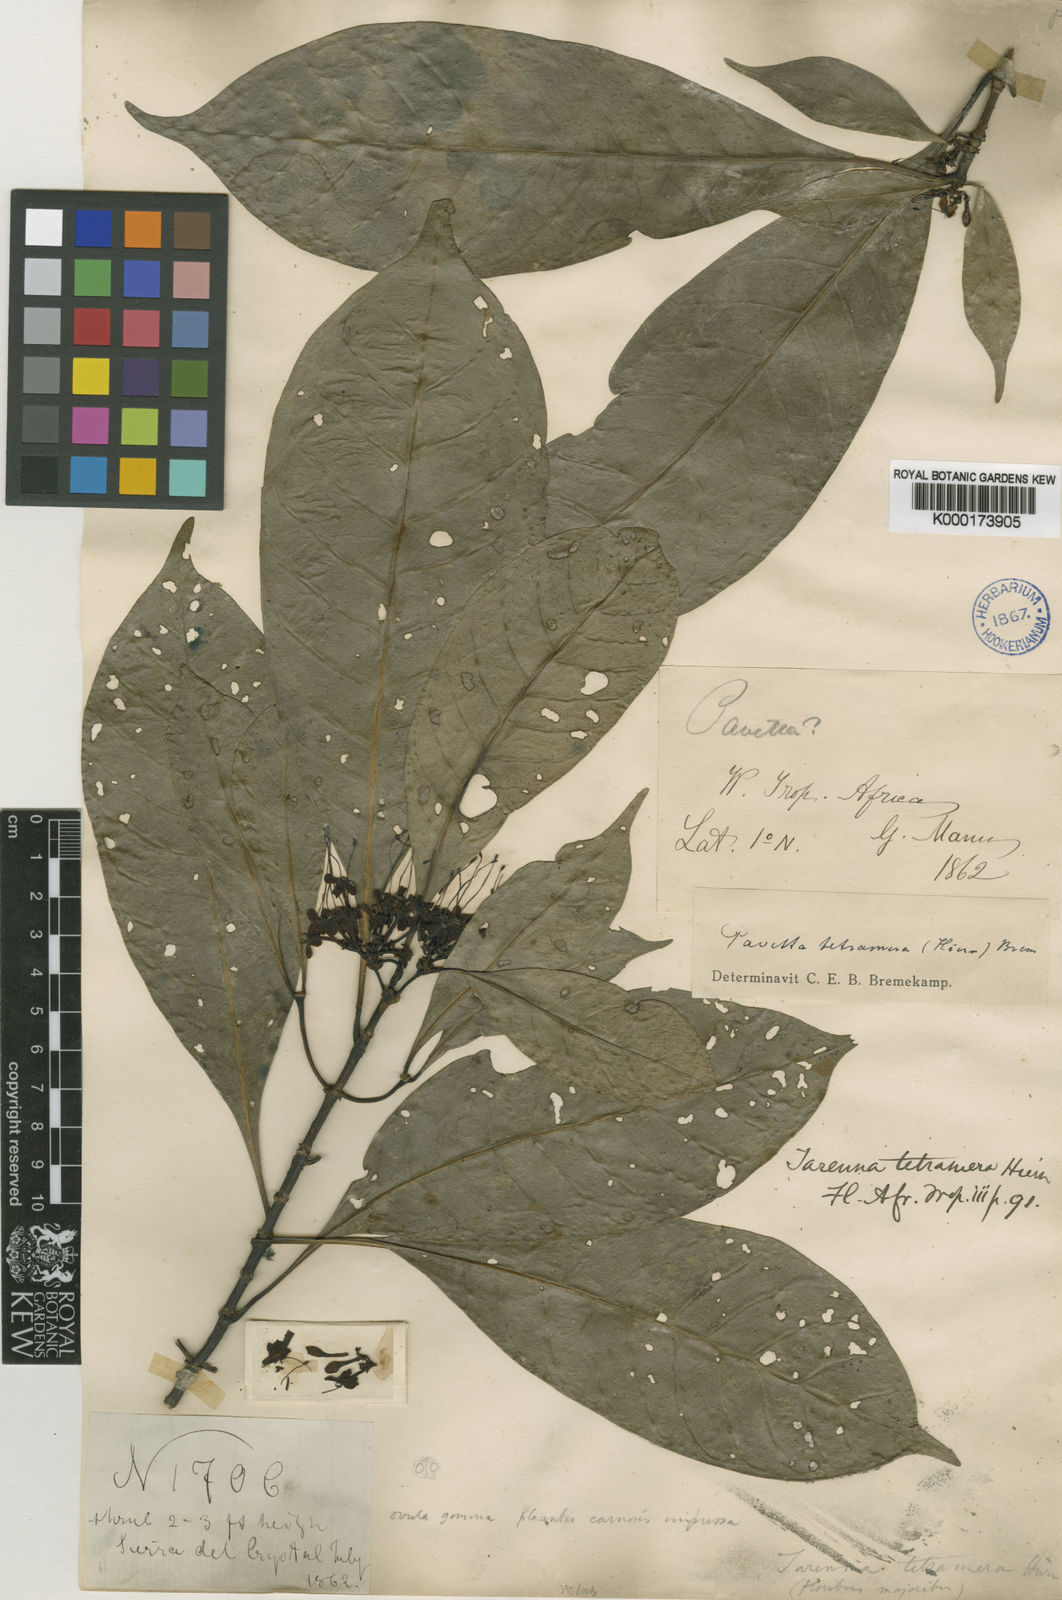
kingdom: Plantae
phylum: Tracheophyta
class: Magnoliopsida
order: Gentianales
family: Rubiaceae
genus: Pavetta
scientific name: Pavetta tetramera
